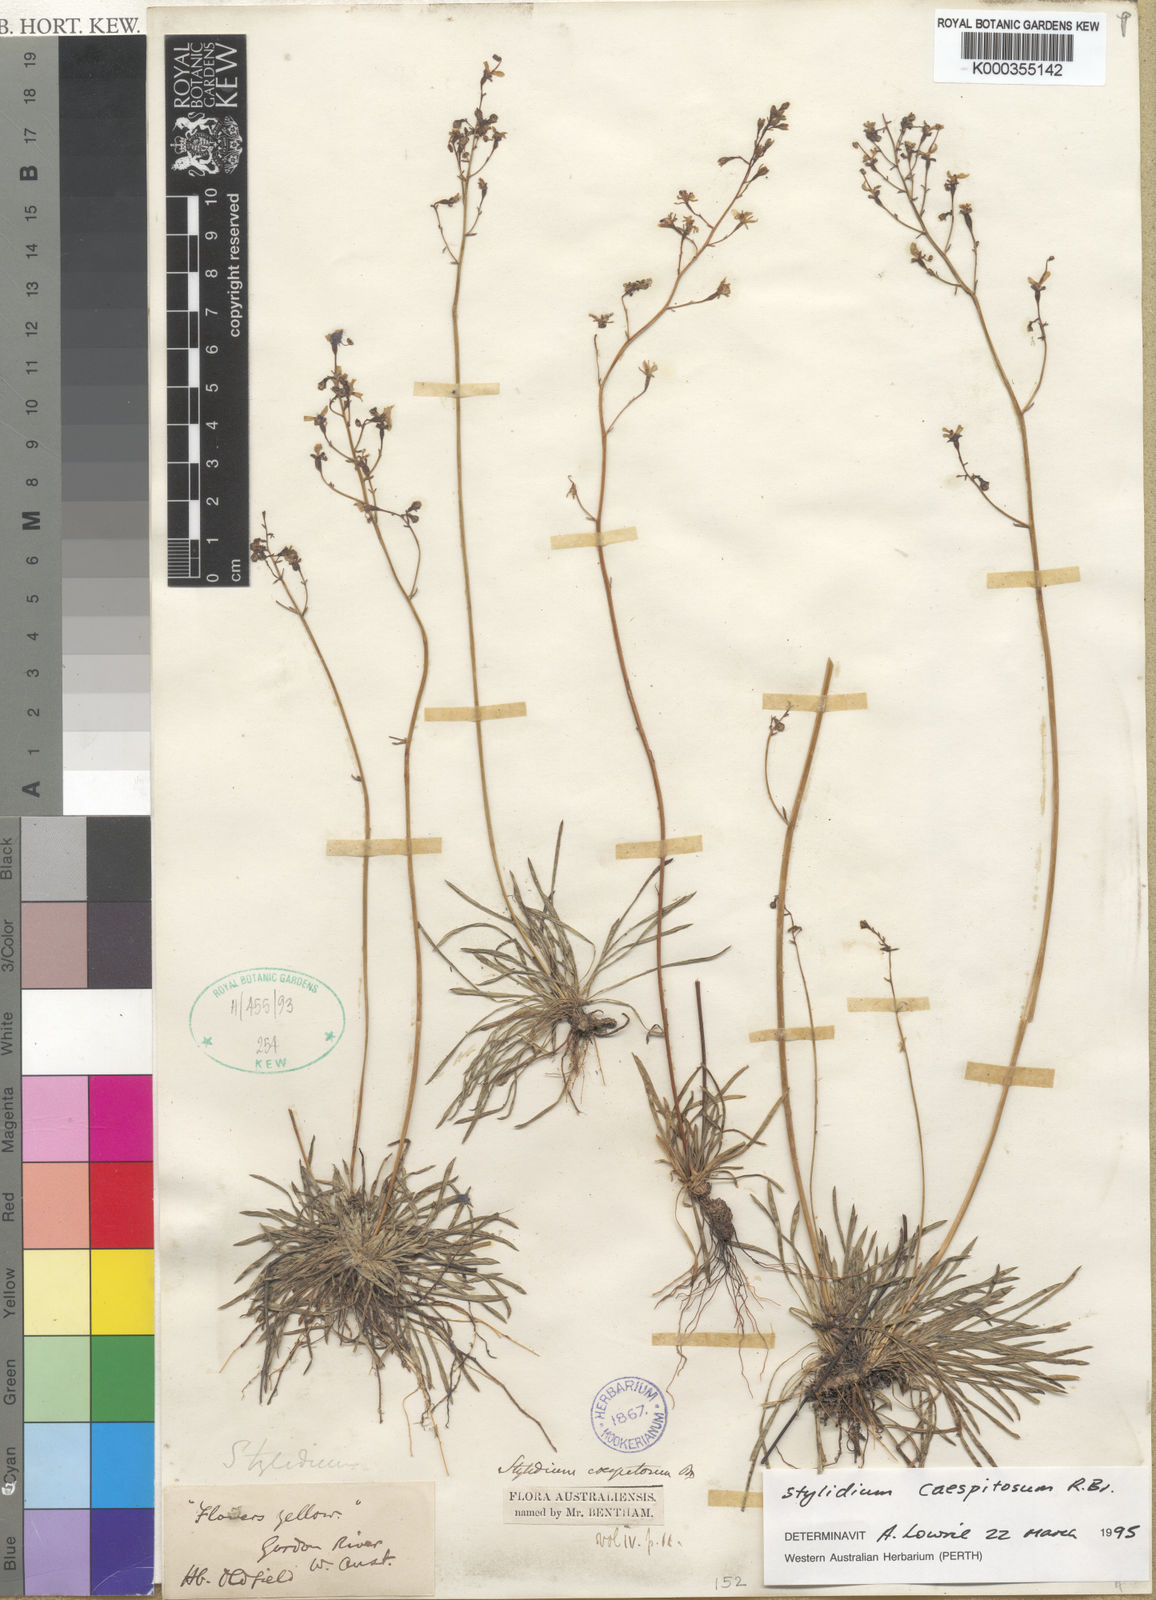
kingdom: Plantae
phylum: Tracheophyta
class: Magnoliopsida
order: Asterales
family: Stylidiaceae
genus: Stylidium
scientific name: Stylidium caespitosum
